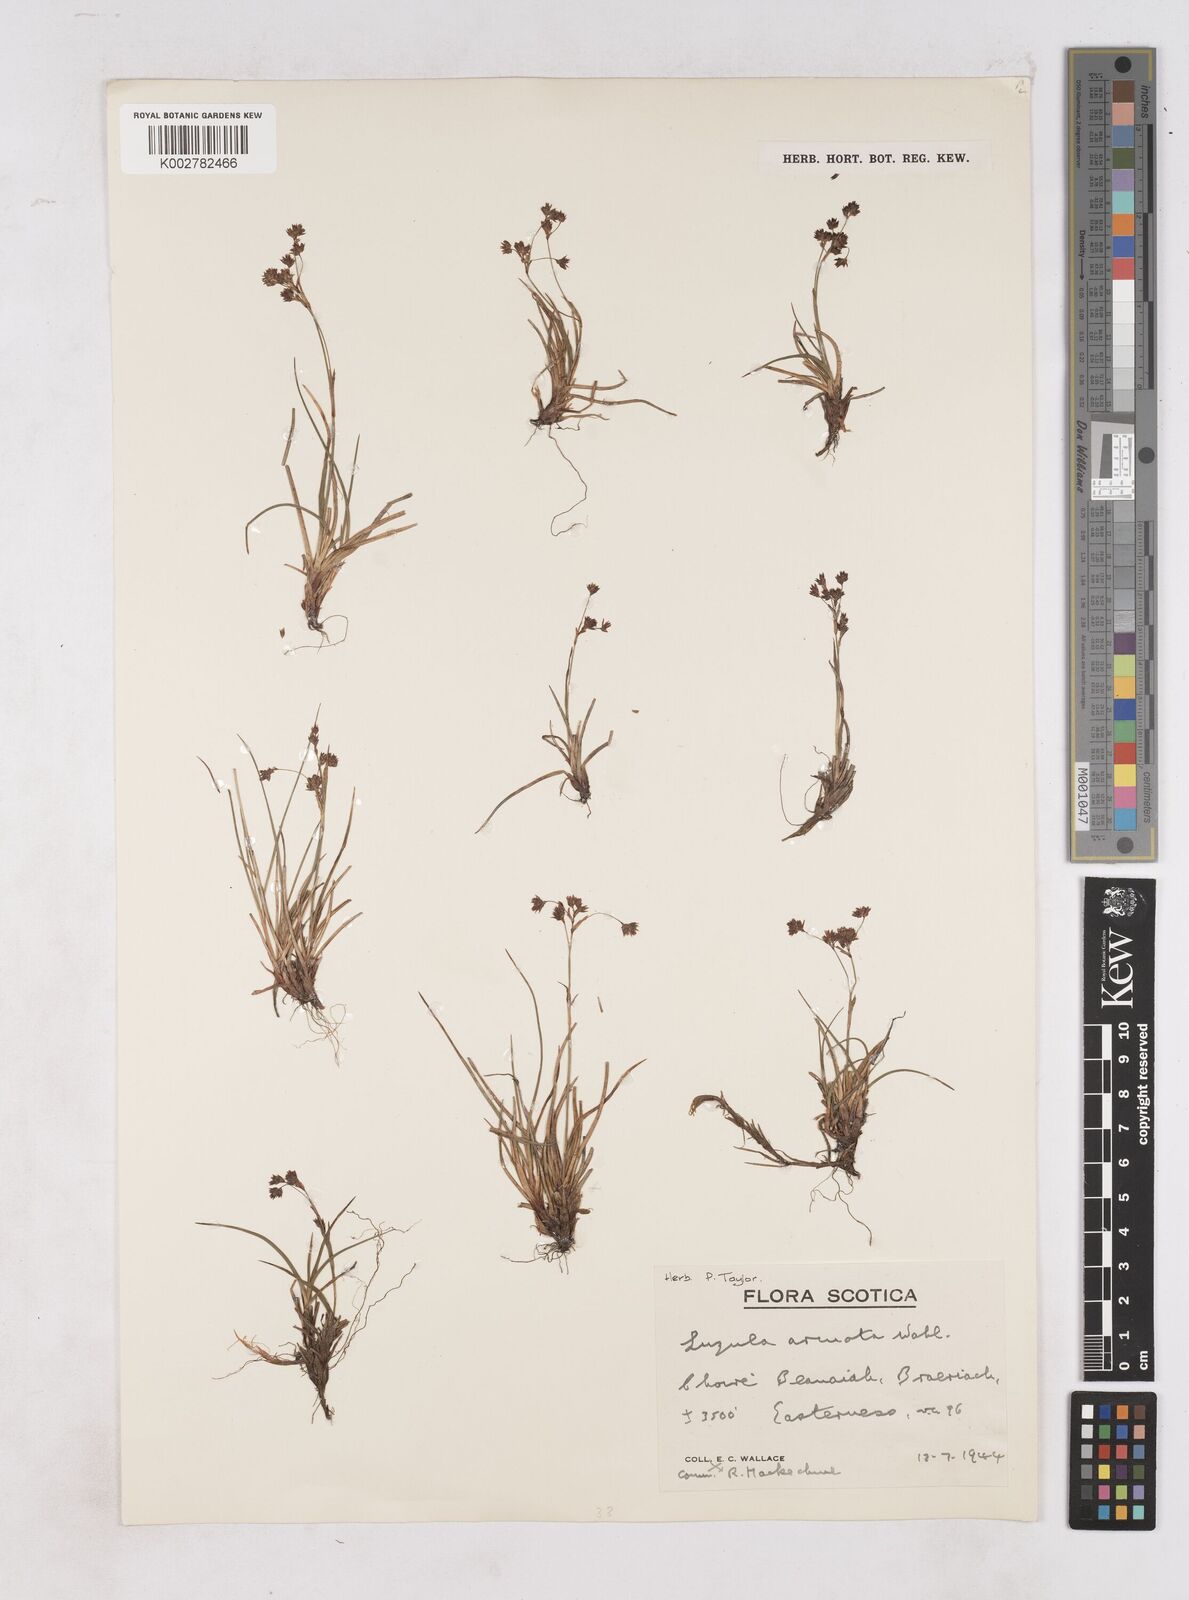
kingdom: Plantae
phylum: Tracheophyta
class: Liliopsida
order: Poales
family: Juncaceae
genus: Luzula
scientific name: Luzula arcuata
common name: Curved wood-rush
